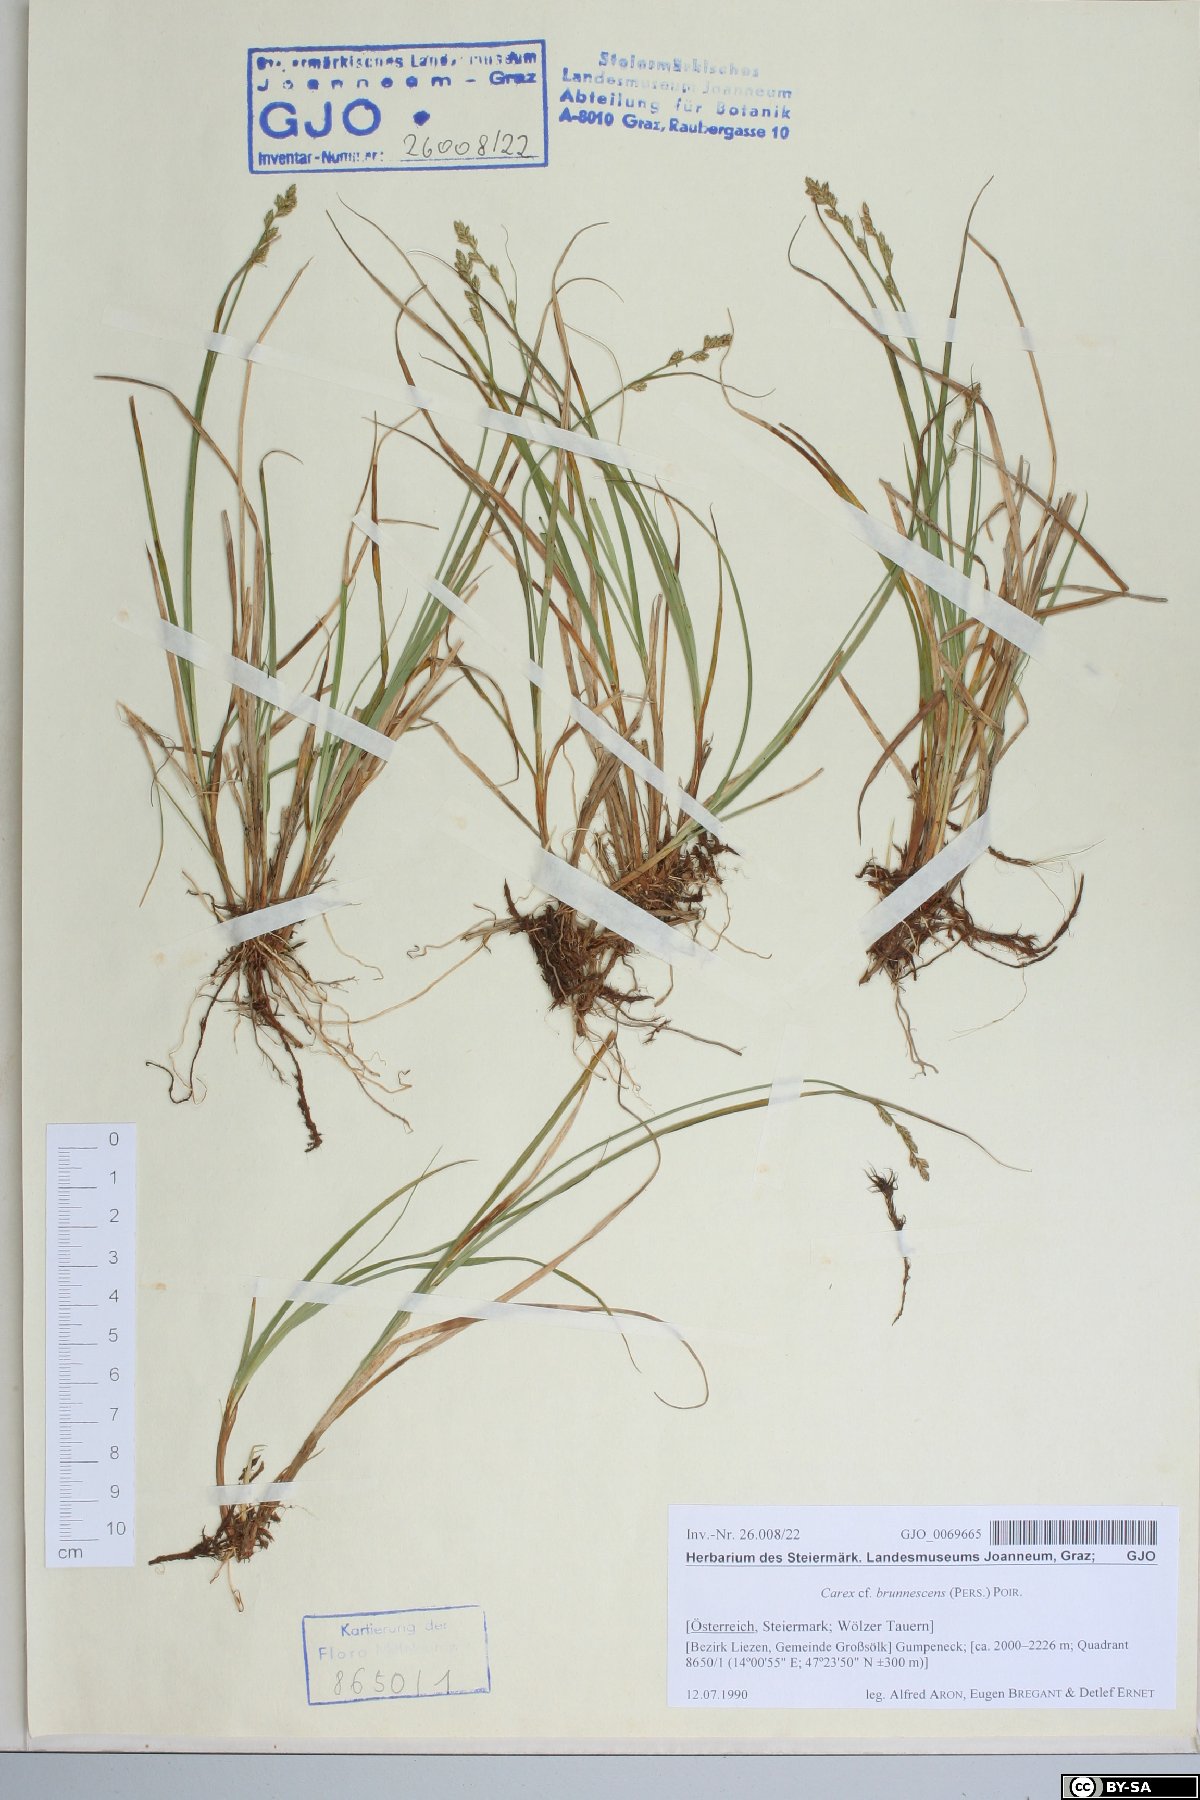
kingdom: Plantae
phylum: Tracheophyta
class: Liliopsida
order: Poales
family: Cyperaceae
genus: Carex
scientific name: Carex brunnescens
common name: Brown sedge
